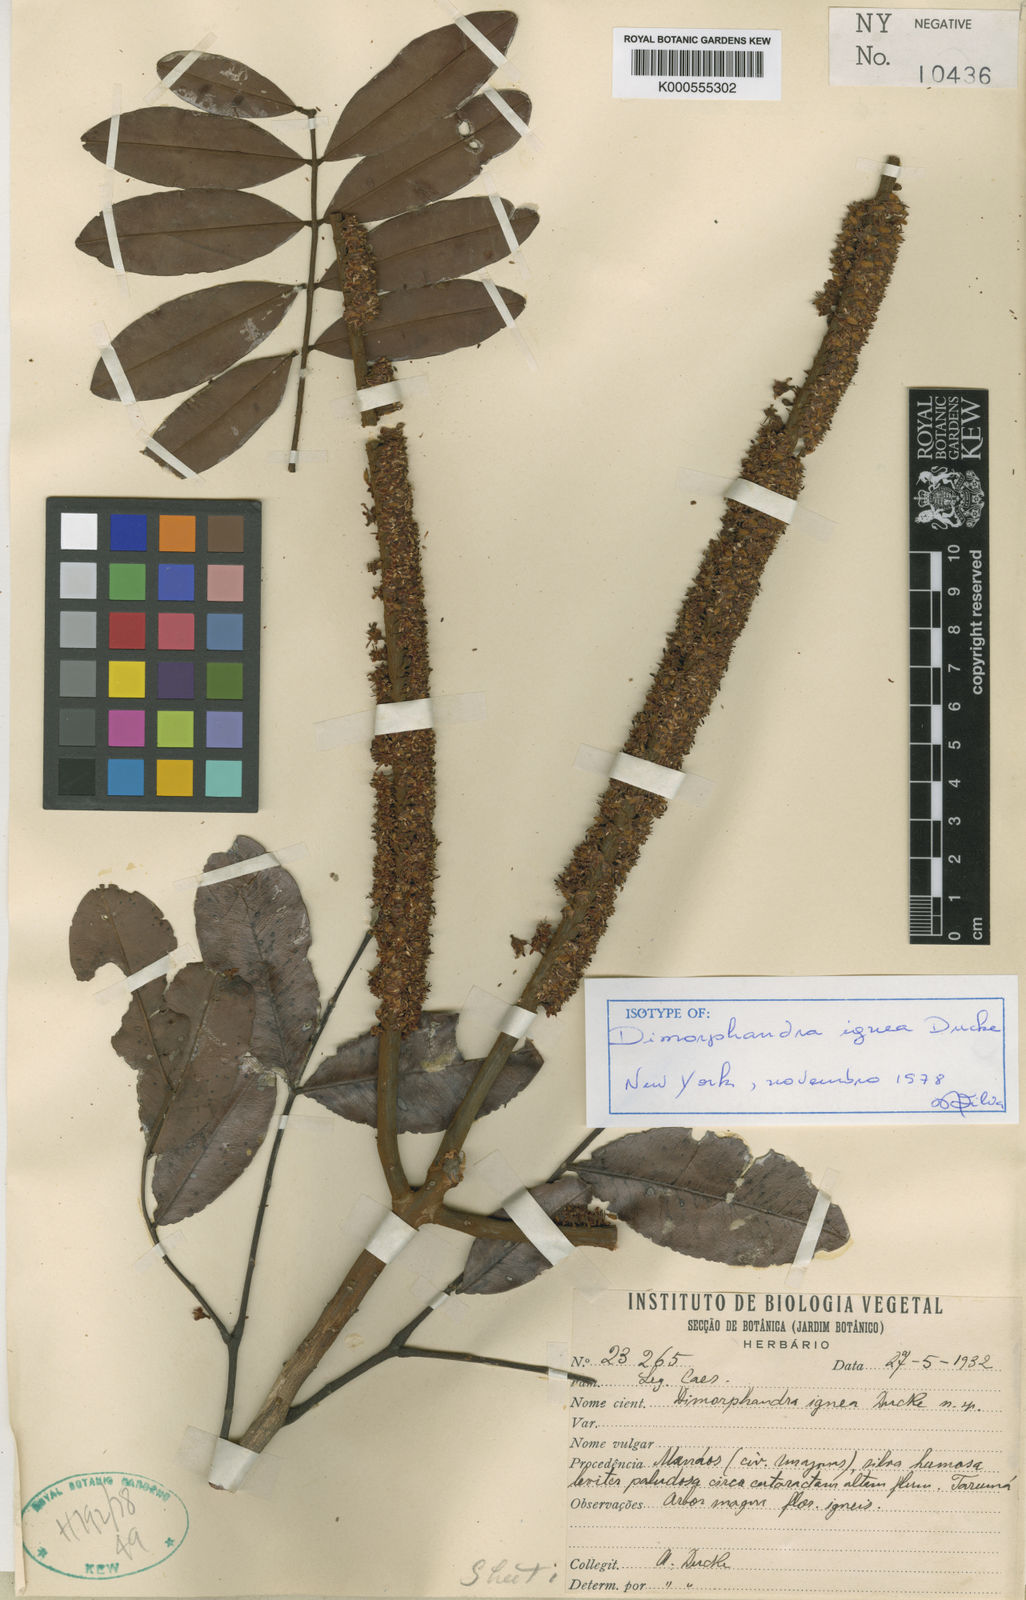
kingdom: Plantae
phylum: Tracheophyta
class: Magnoliopsida
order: Fabales
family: Fabaceae
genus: Dimorphandra
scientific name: Dimorphandra ignea
